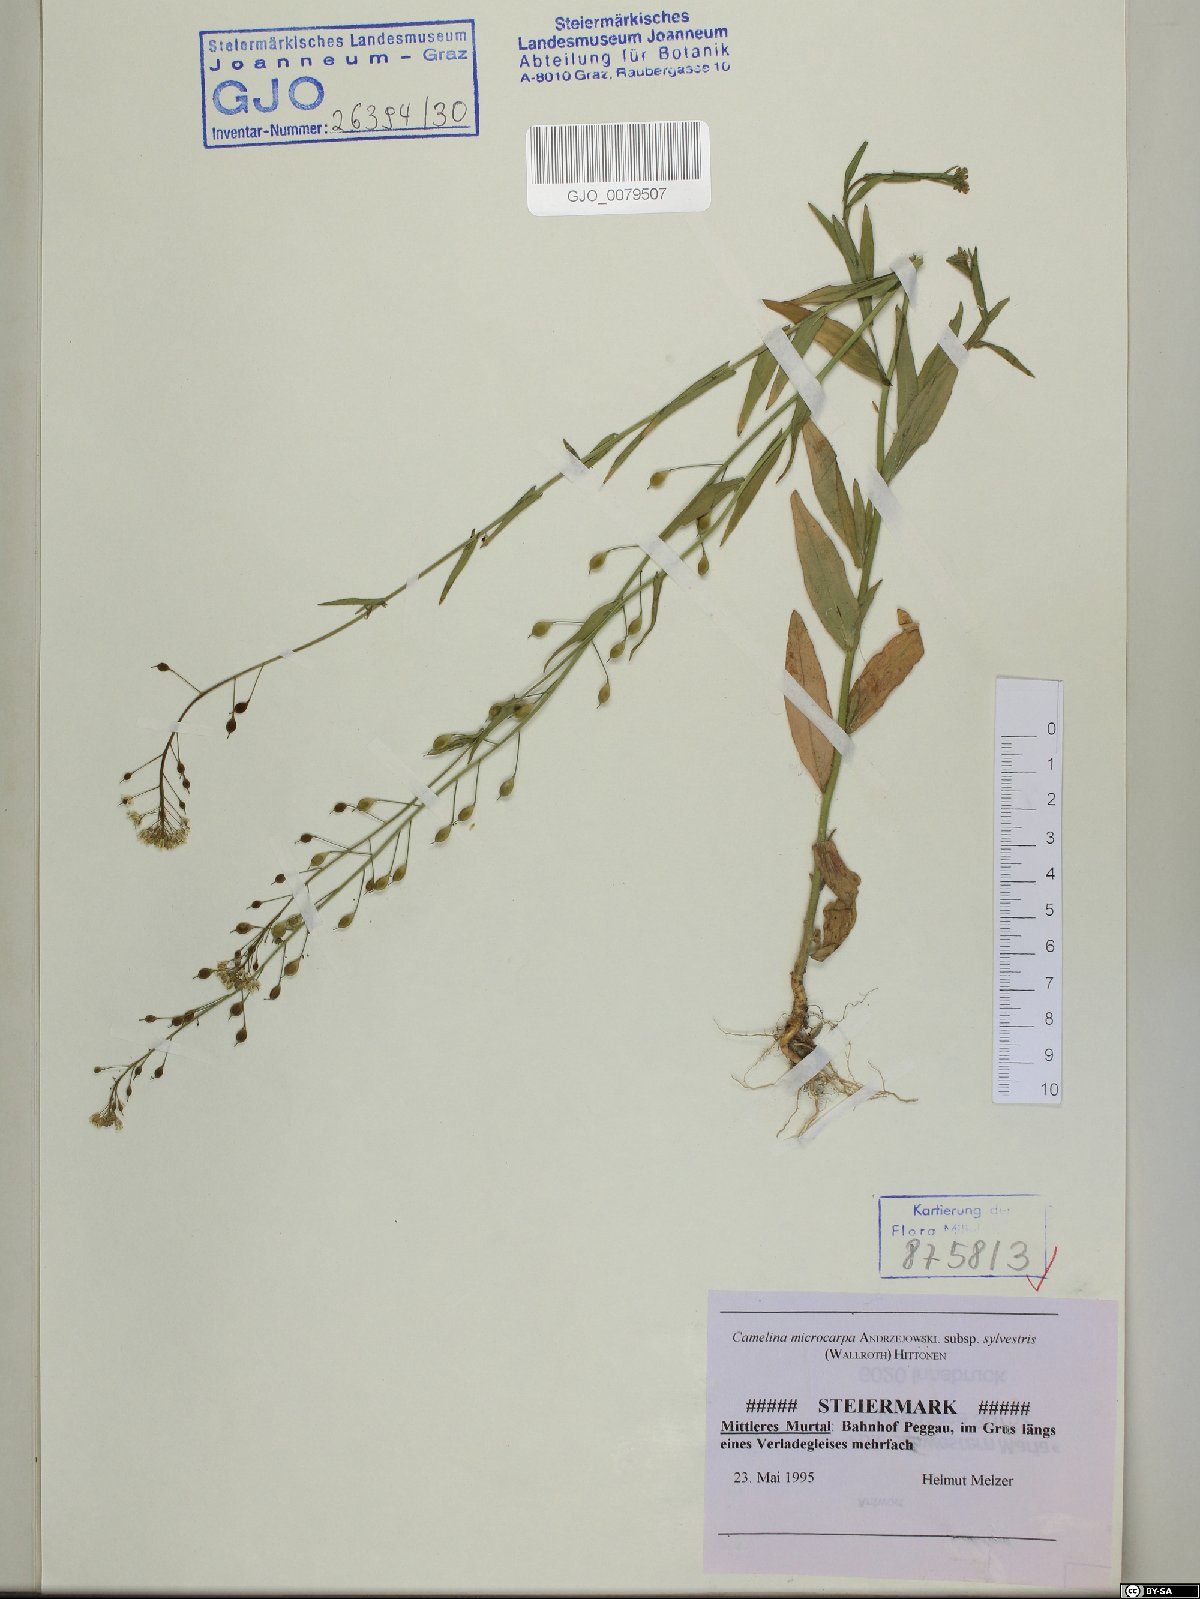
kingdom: Plantae
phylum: Tracheophyta
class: Magnoliopsida
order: Brassicales
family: Brassicaceae
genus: Camelina
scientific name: Camelina microcarpa
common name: Lesser gold-of-pleasure
